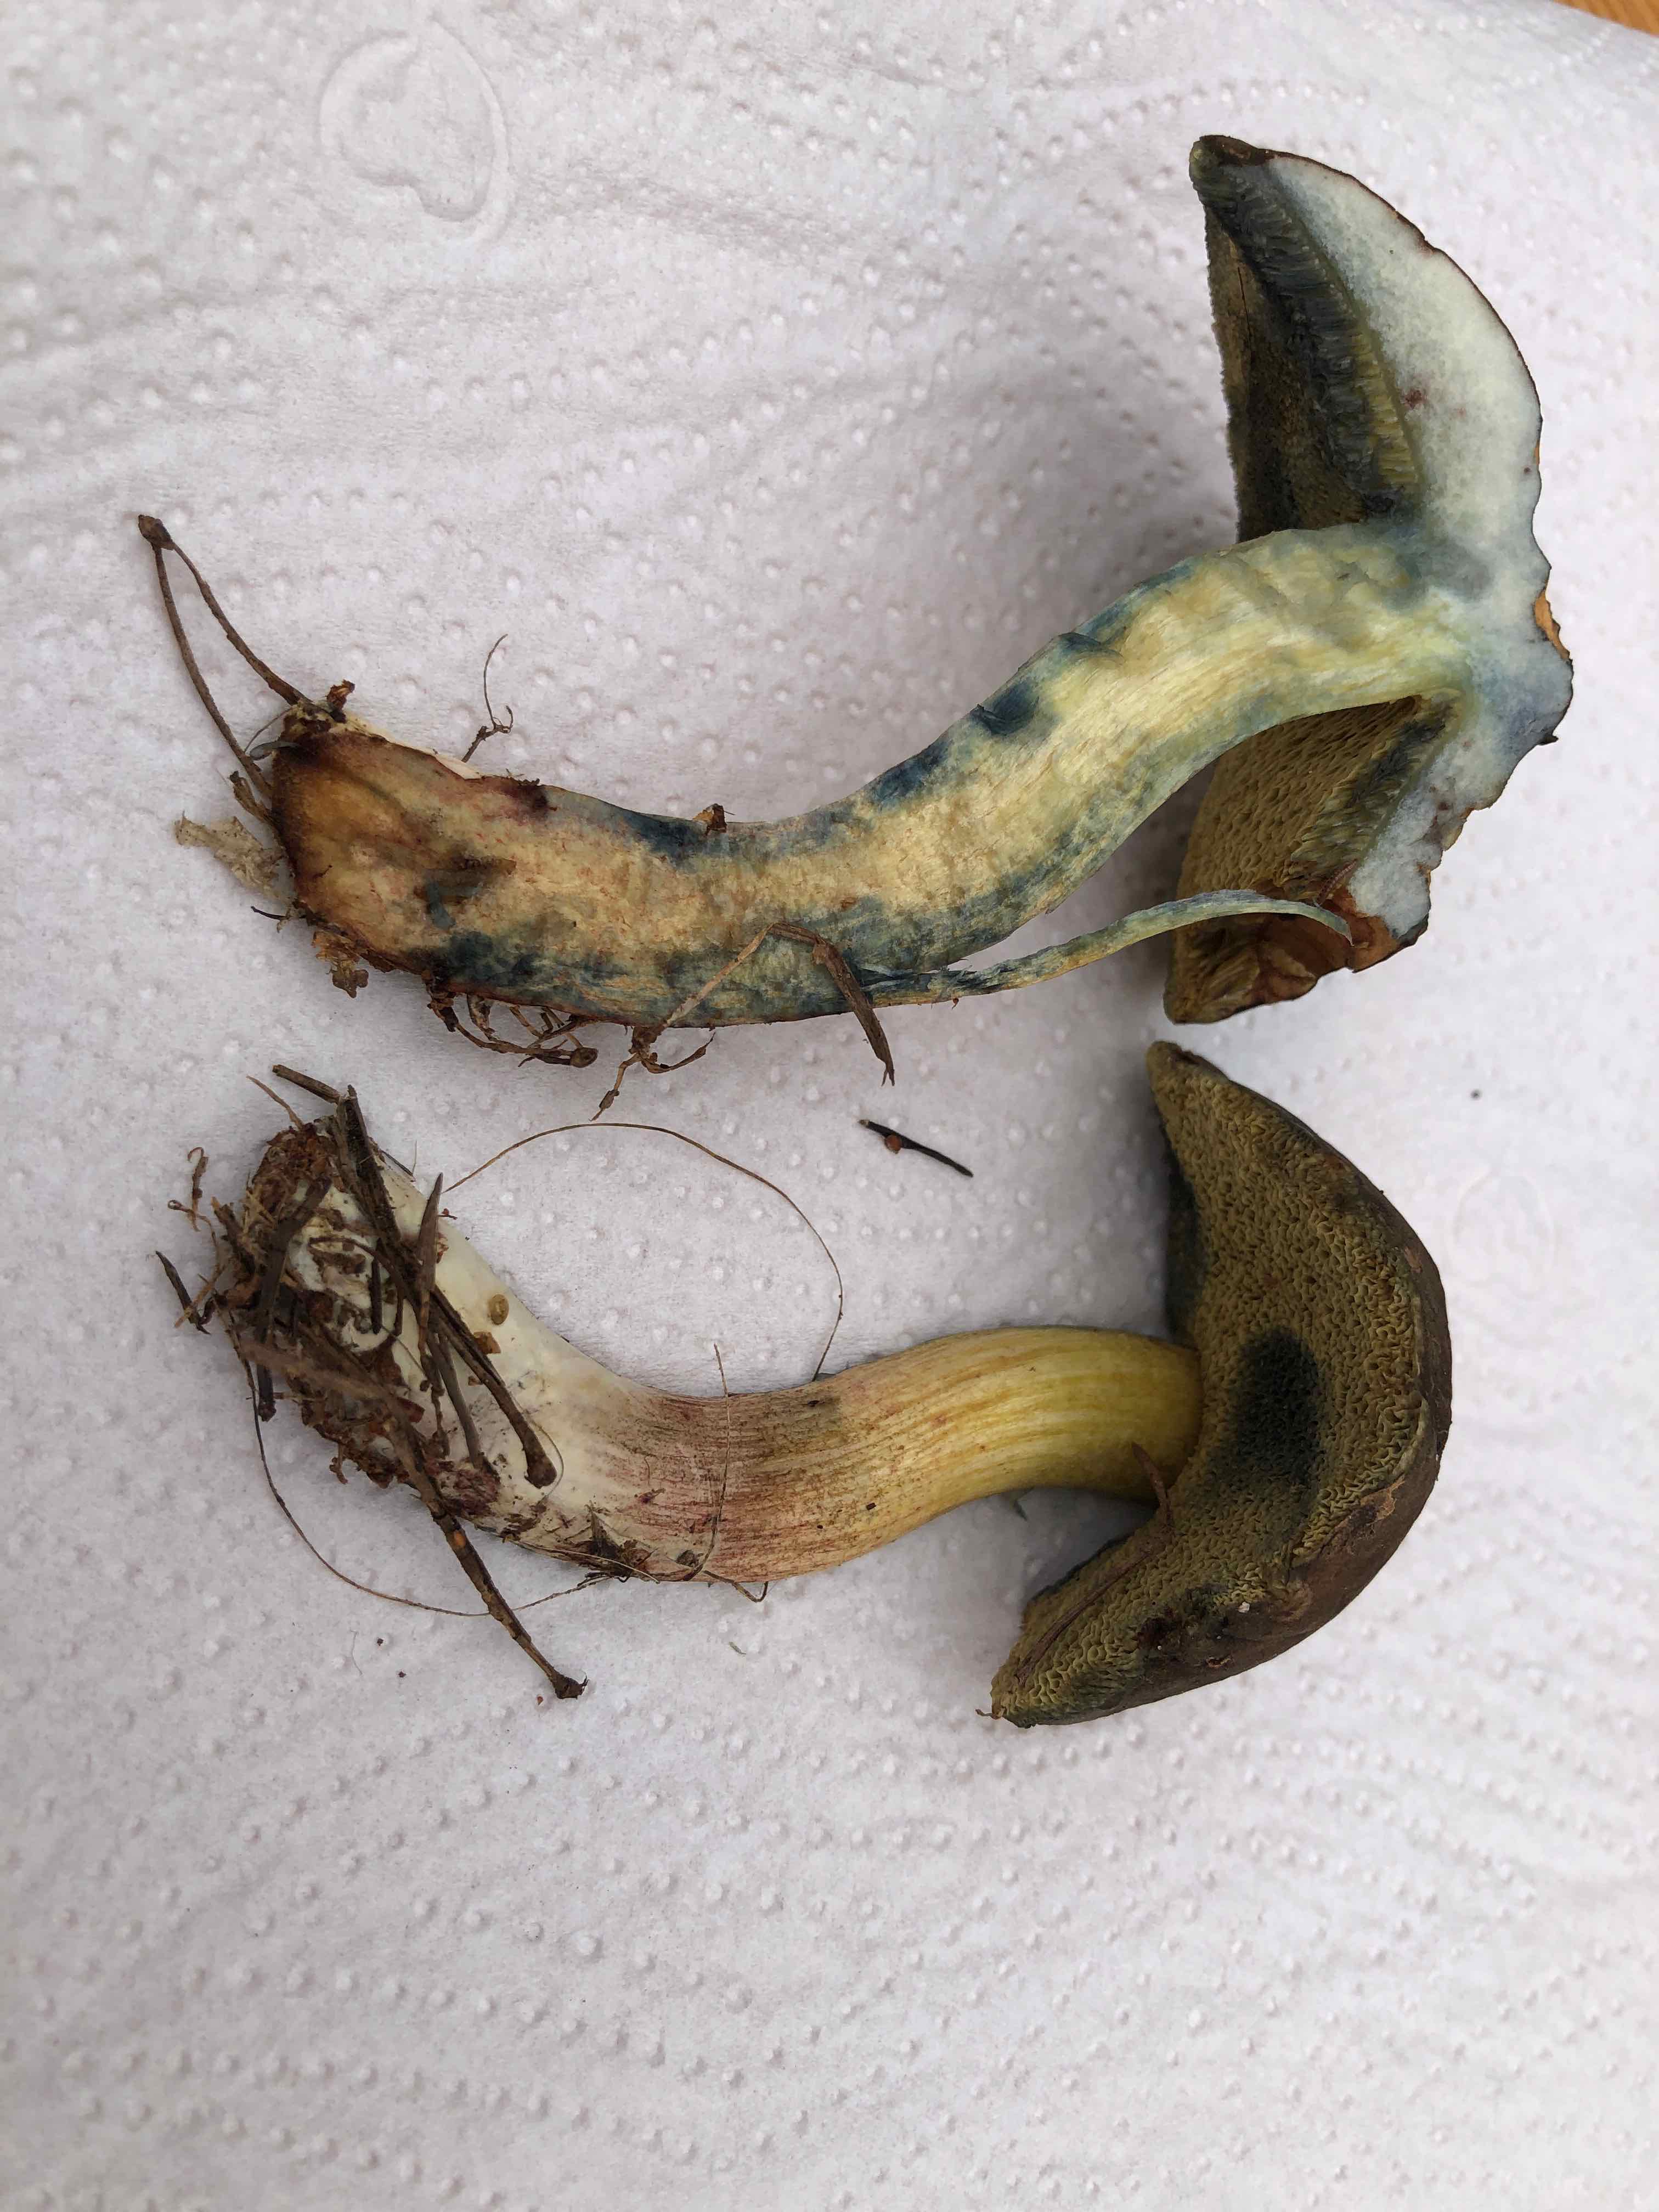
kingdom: Fungi
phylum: Basidiomycota
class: Agaricomycetes
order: Boletales
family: Boletaceae
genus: Xerocomellus
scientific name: Xerocomellus cisalpinus
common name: finsprukken rørhat
